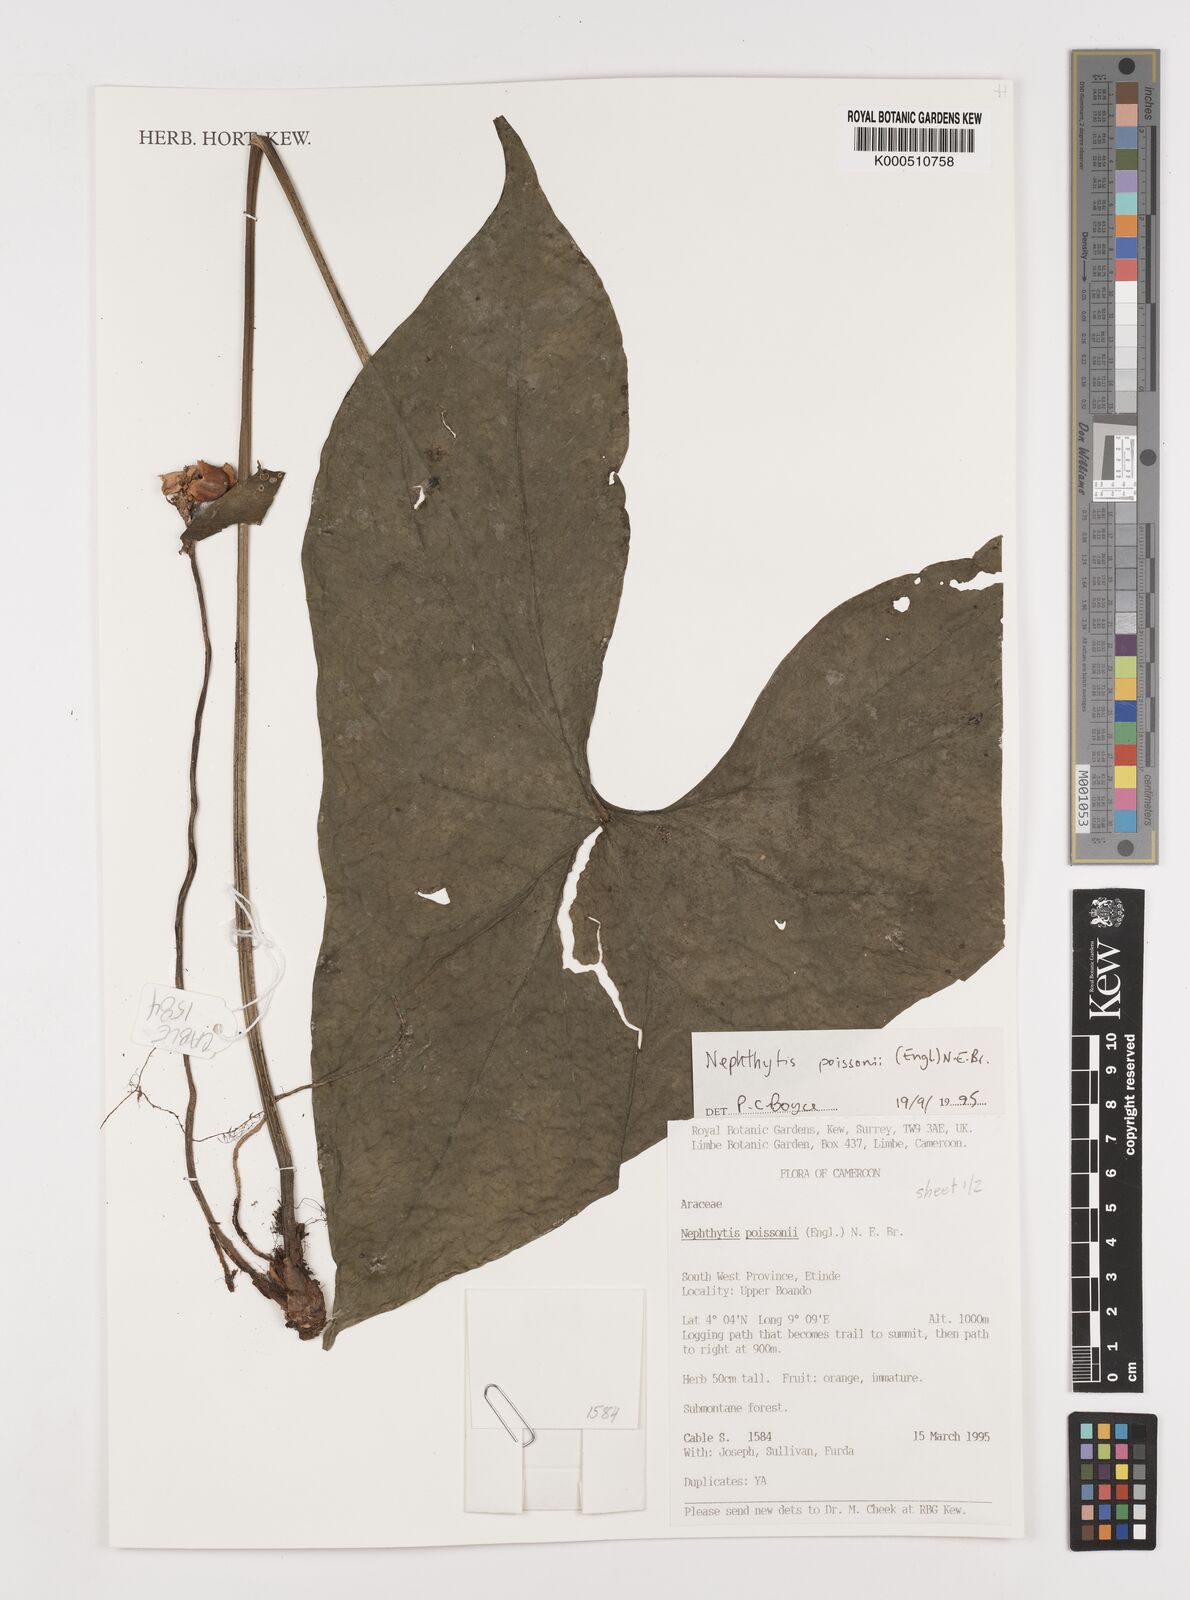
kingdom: Plantae
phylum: Tracheophyta
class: Liliopsida
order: Alismatales
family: Araceae
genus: Nephthytis
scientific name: Nephthytis poissonii
